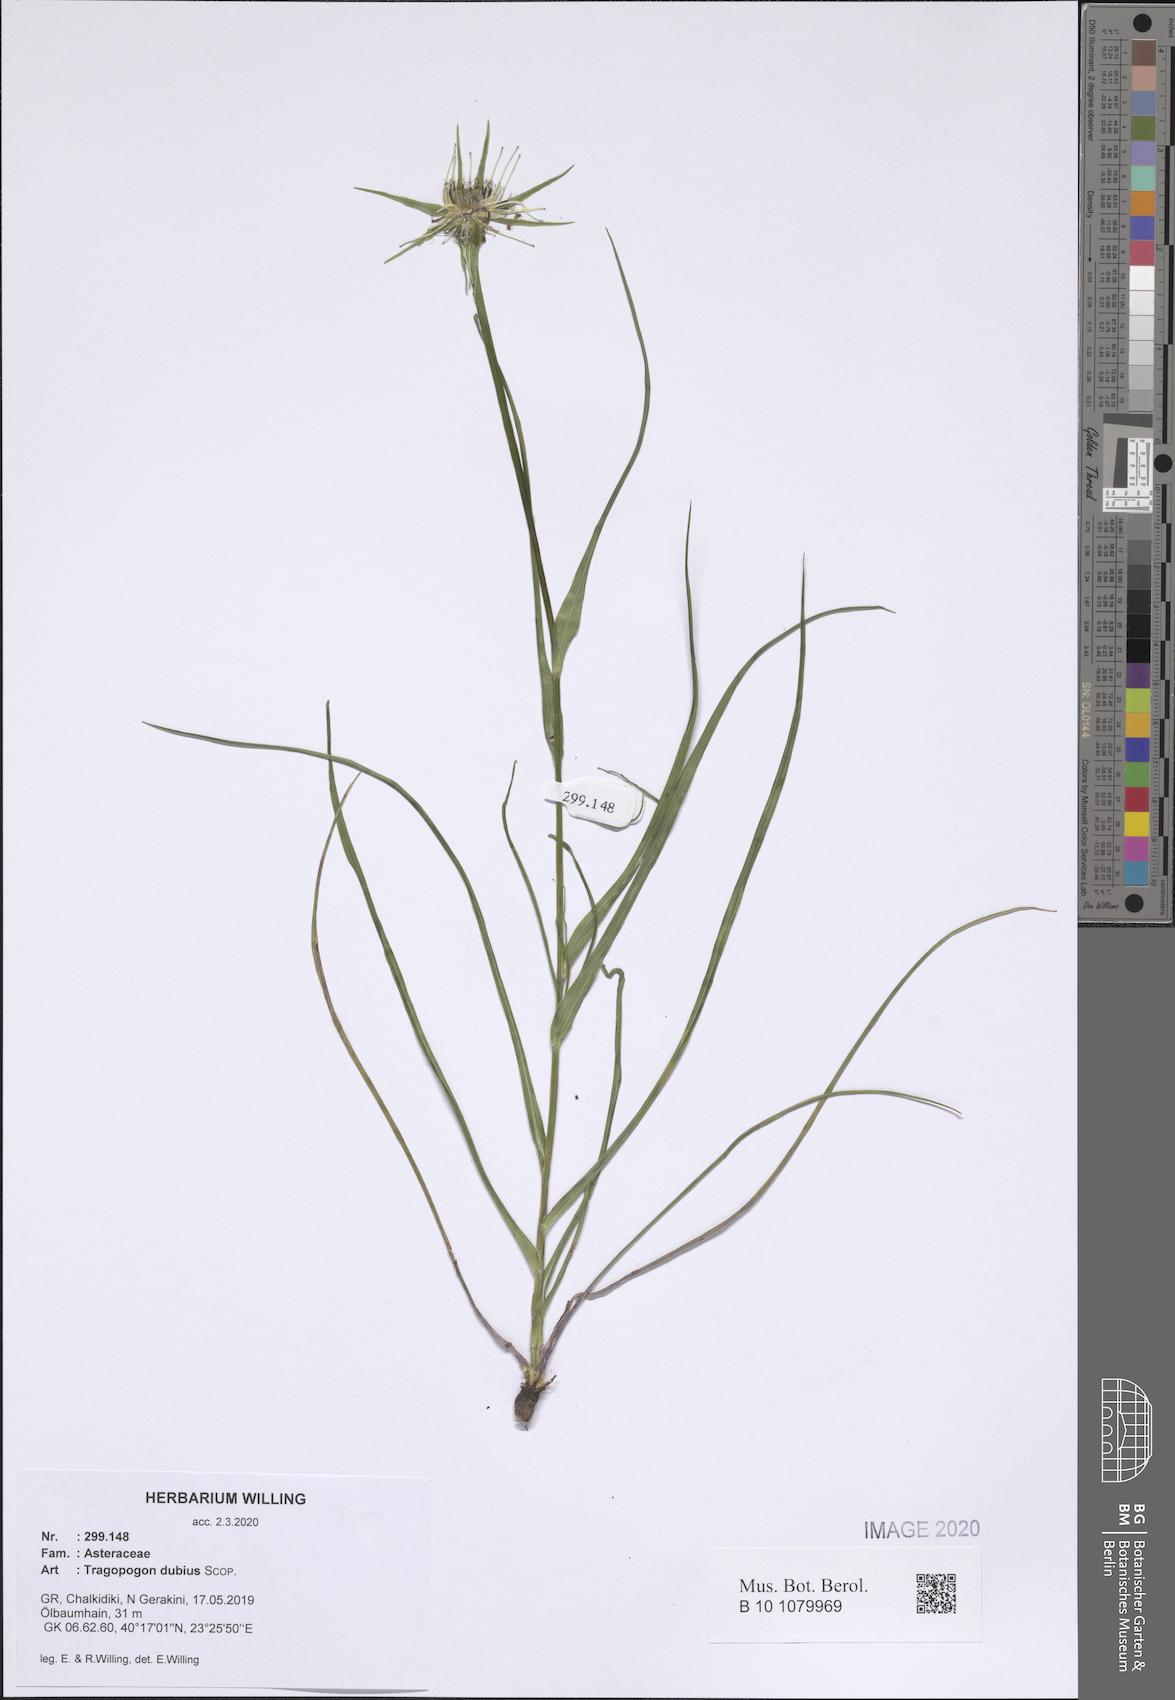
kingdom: Plantae
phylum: Tracheophyta
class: Magnoliopsida
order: Asterales
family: Asteraceae
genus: Tragopogon
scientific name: Tragopogon dubius
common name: Yellow salsify
